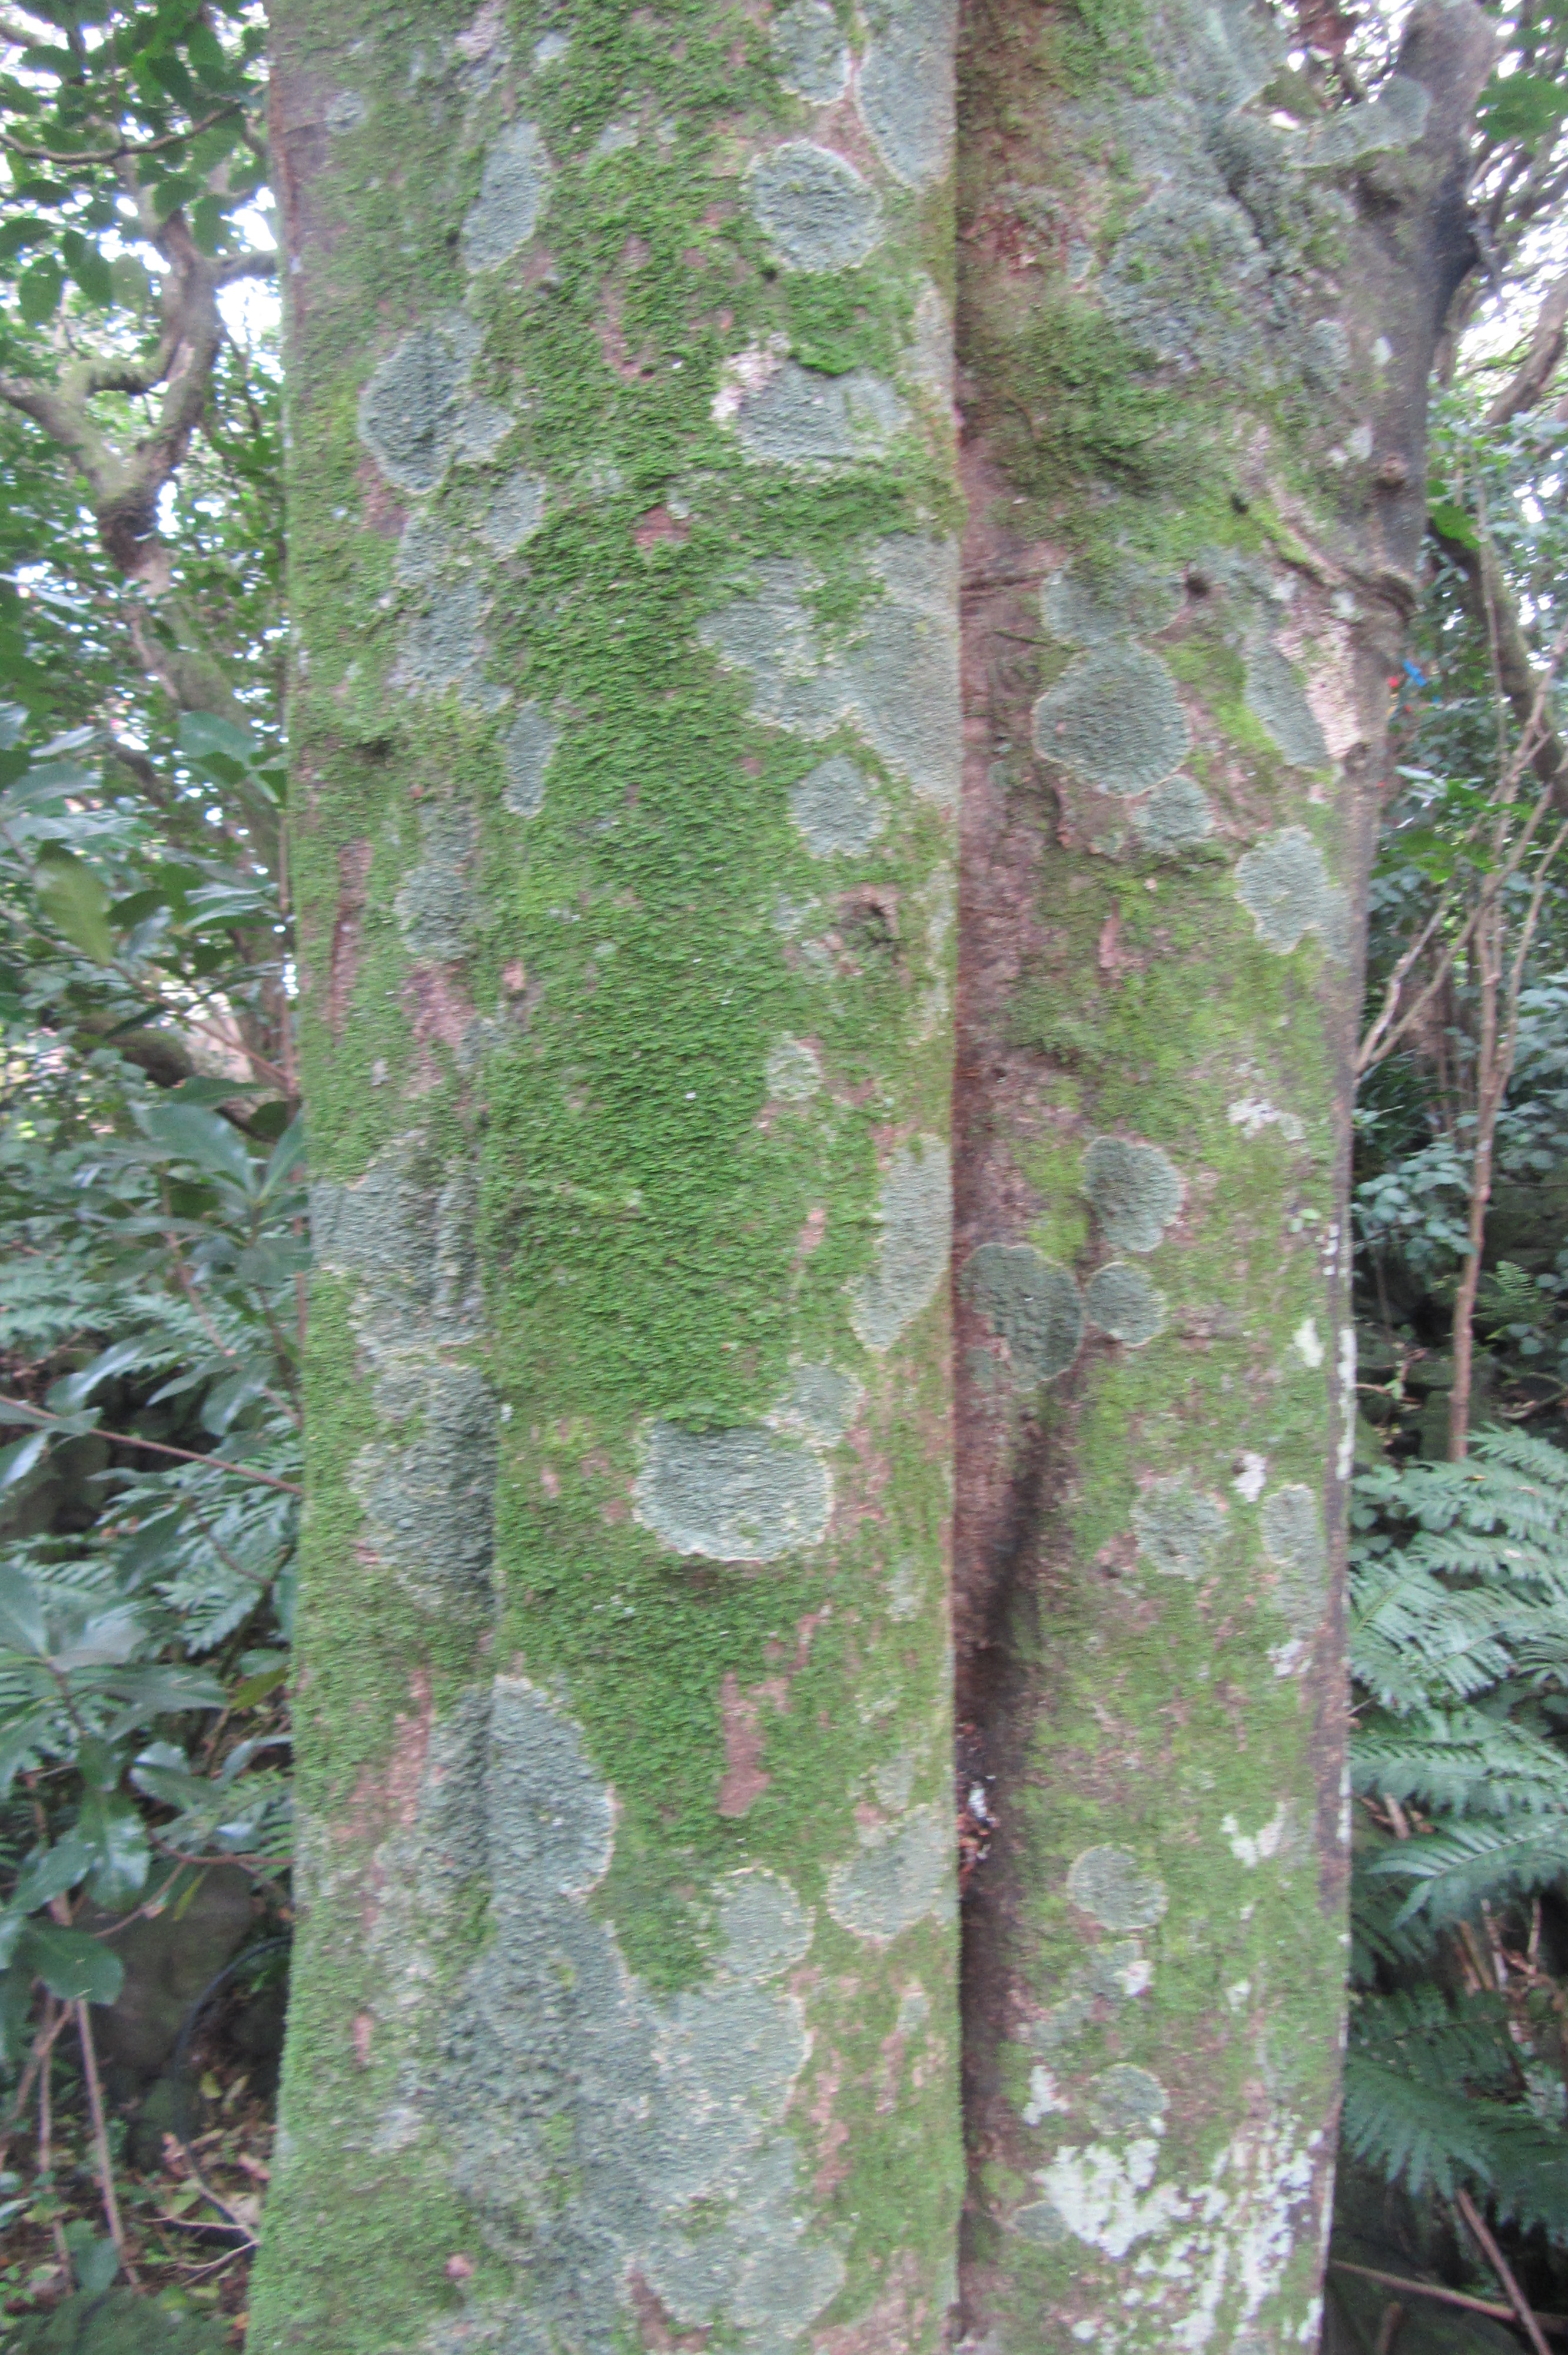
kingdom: Plantae
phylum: Marchantiophyta
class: Jungermanniopsida
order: Porellales
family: Frullaniaceae
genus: Frullania
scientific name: Frullania spinifera
